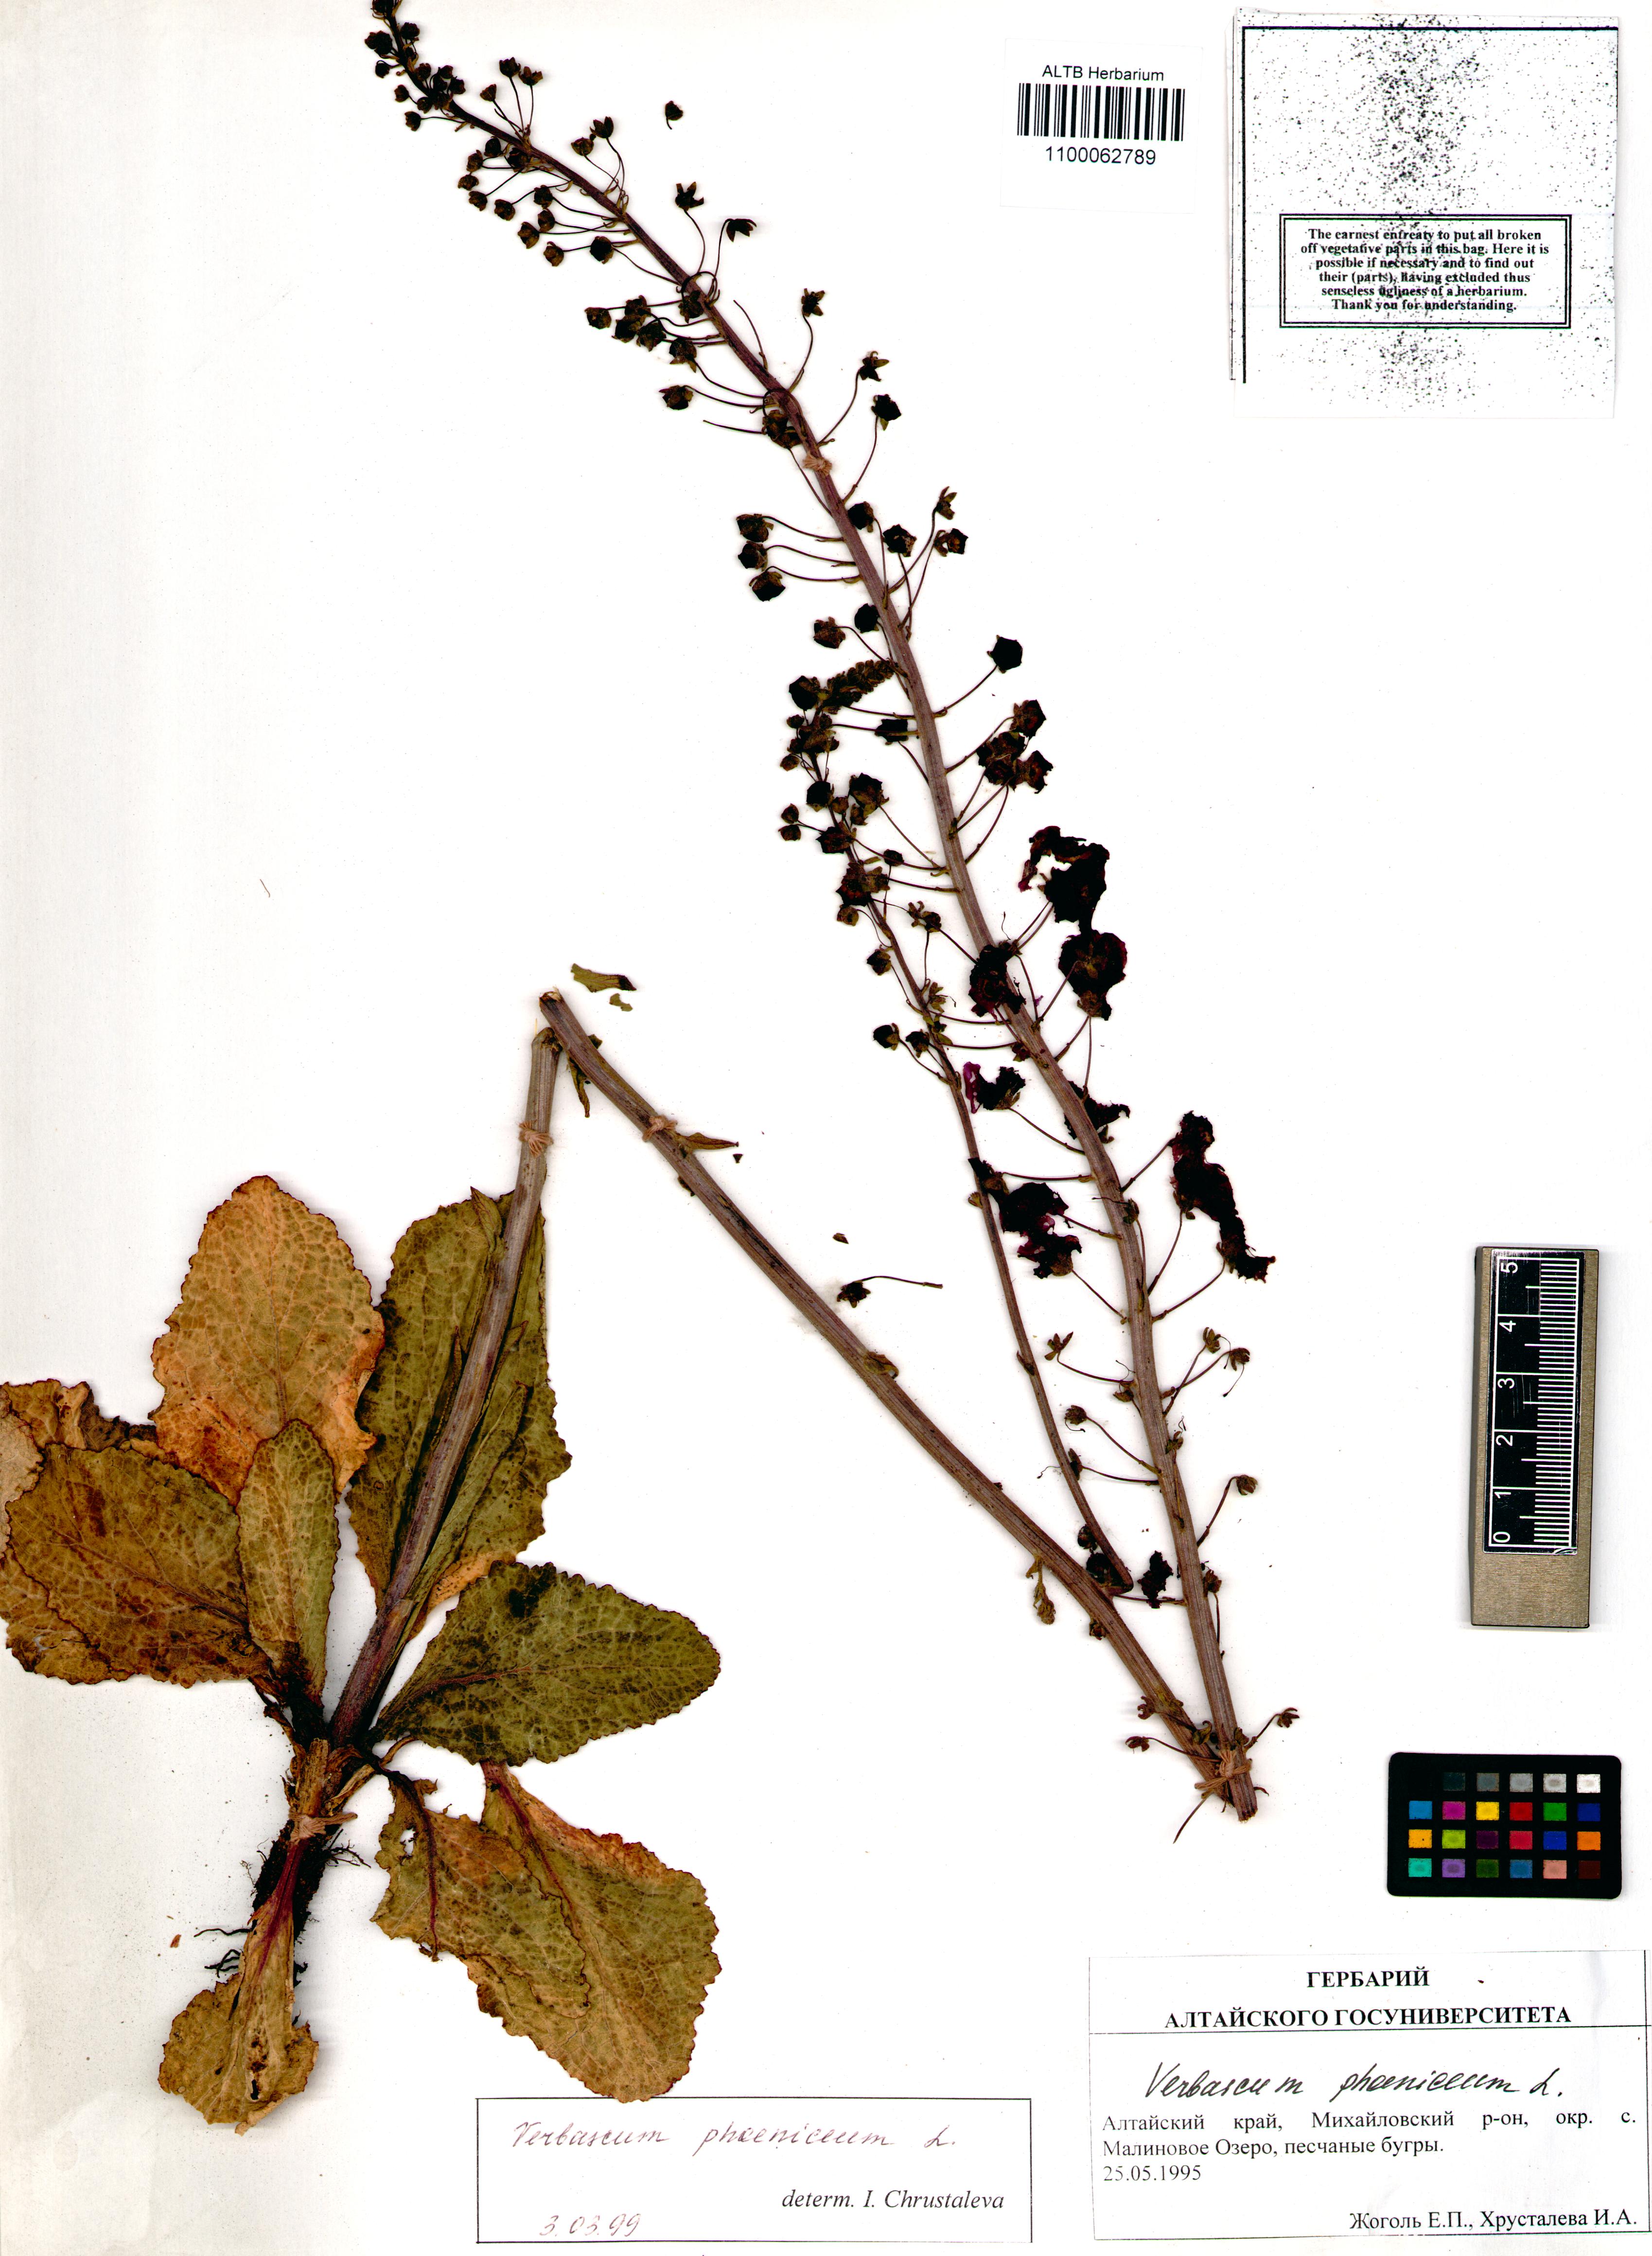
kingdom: Plantae
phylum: Tracheophyta
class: Magnoliopsida
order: Lamiales
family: Scrophulariaceae
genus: Verbascum
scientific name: Verbascum phoeniceum
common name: Purple mullein
